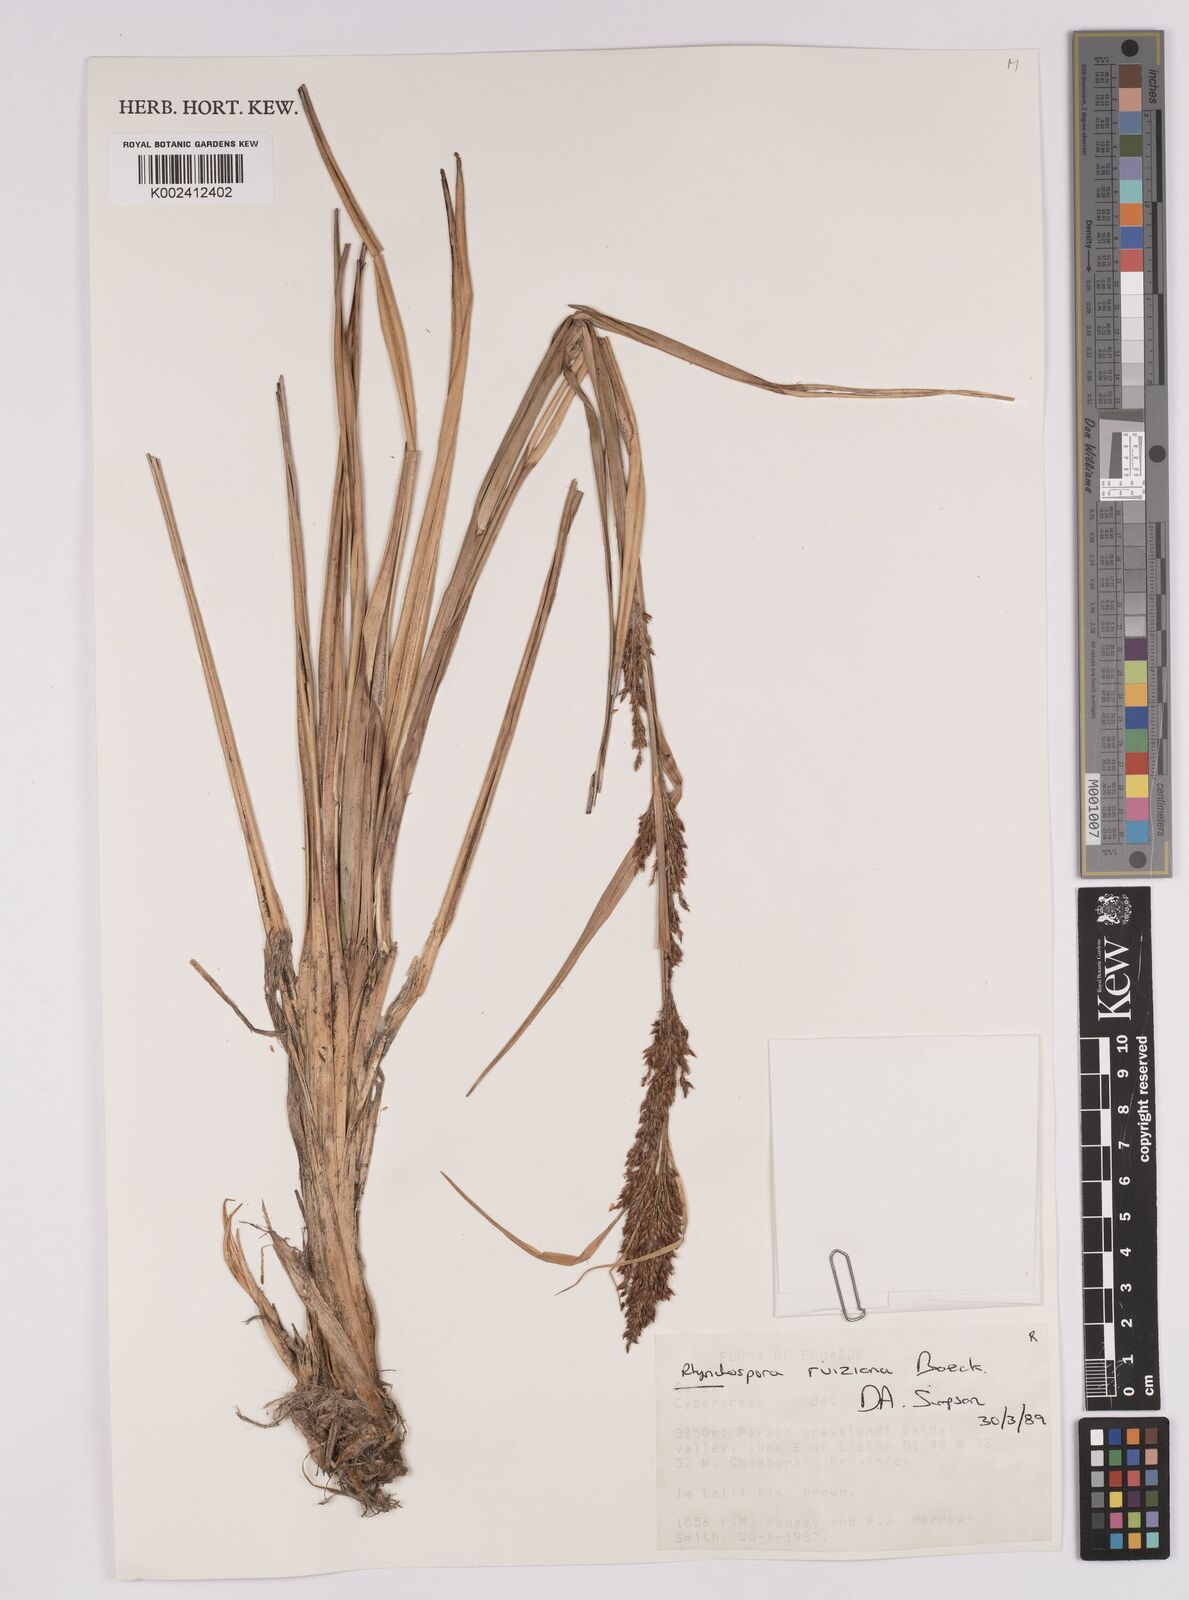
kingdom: Plantae
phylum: Tracheophyta
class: Liliopsida
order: Poales
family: Cyperaceae
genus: Rhynchospora
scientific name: Rhynchospora ruiziana
